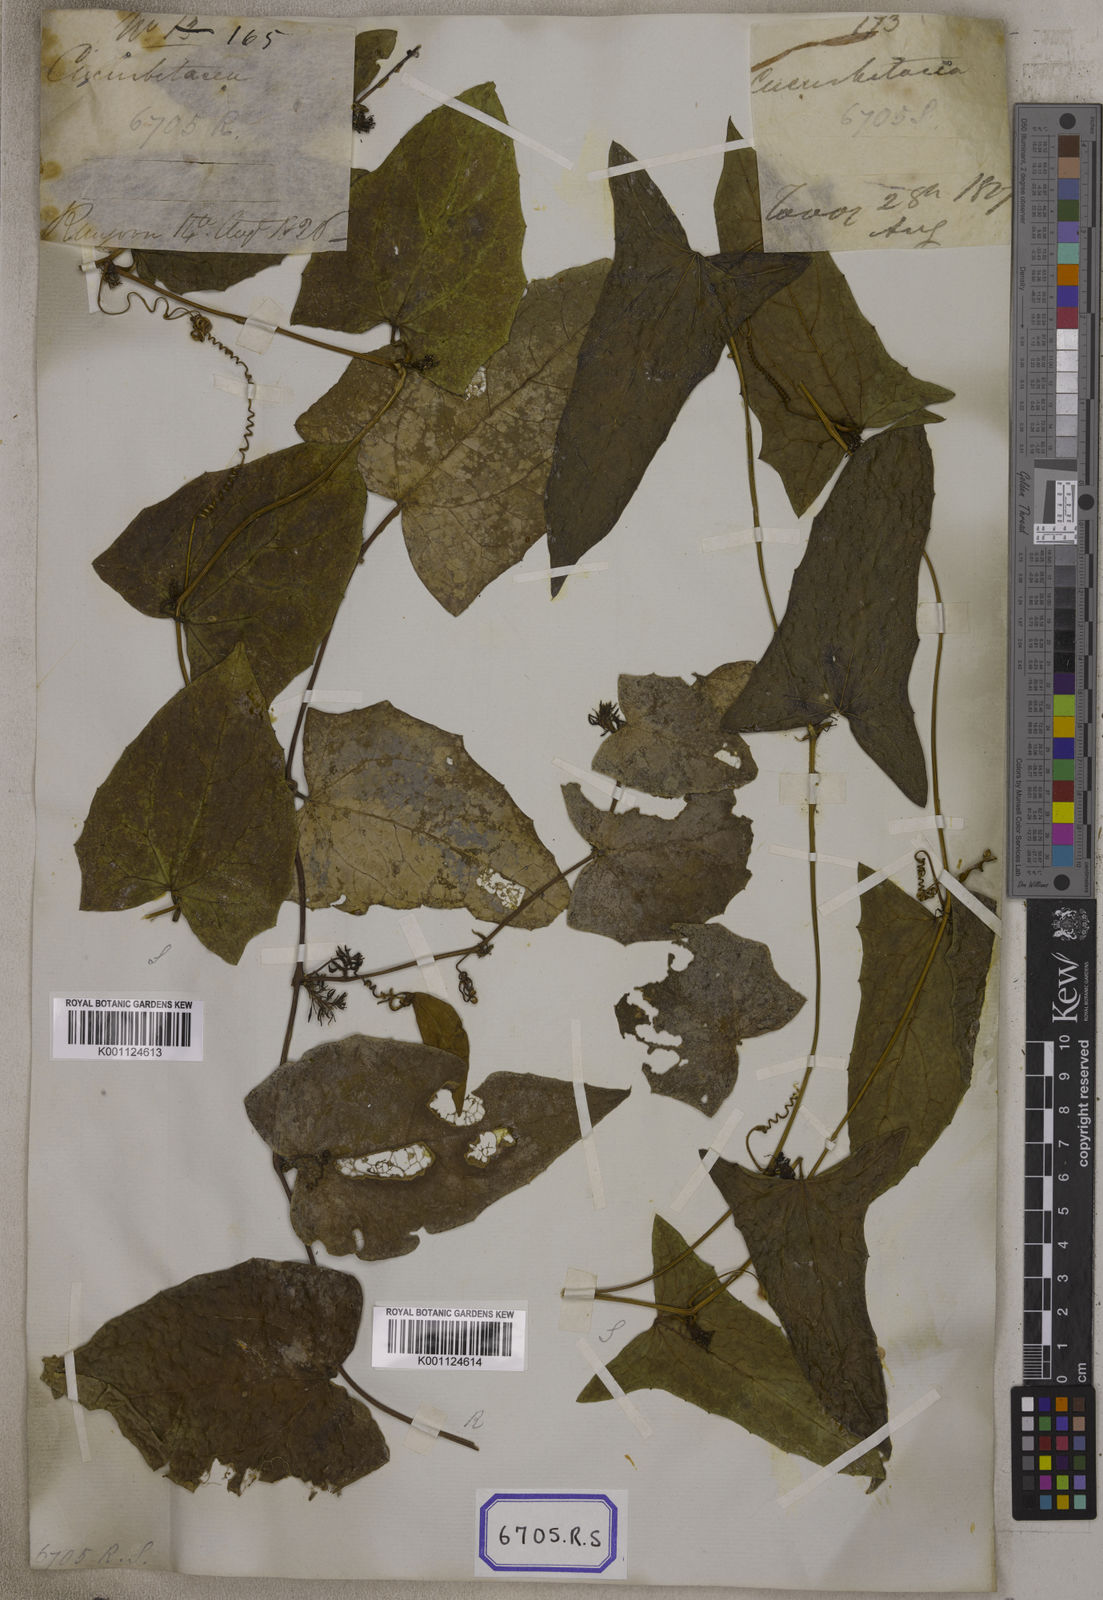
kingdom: Plantae
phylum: Tracheophyta
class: Magnoliopsida
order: Cucurbitales
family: Cucurbitaceae
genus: Bryonia
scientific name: Bryonia
